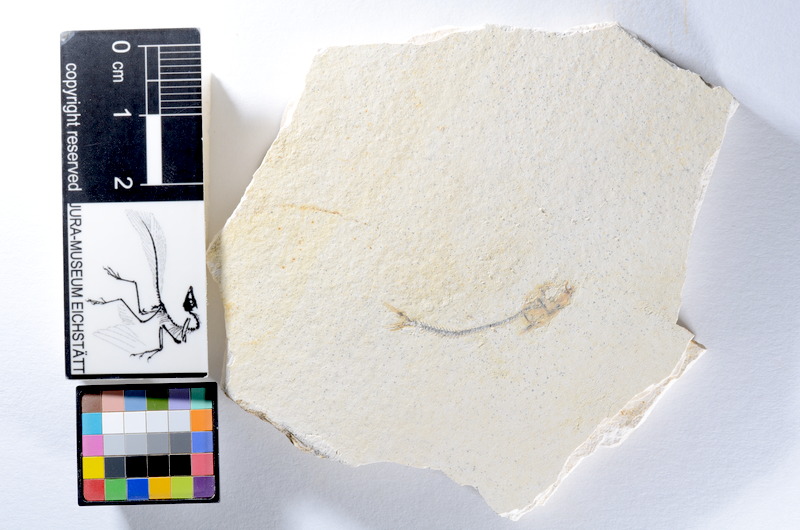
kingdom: Animalia
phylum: Chordata
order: Salmoniformes
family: Orthogonikleithridae
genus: Orthogonikleithrus
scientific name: Orthogonikleithrus hoelli
